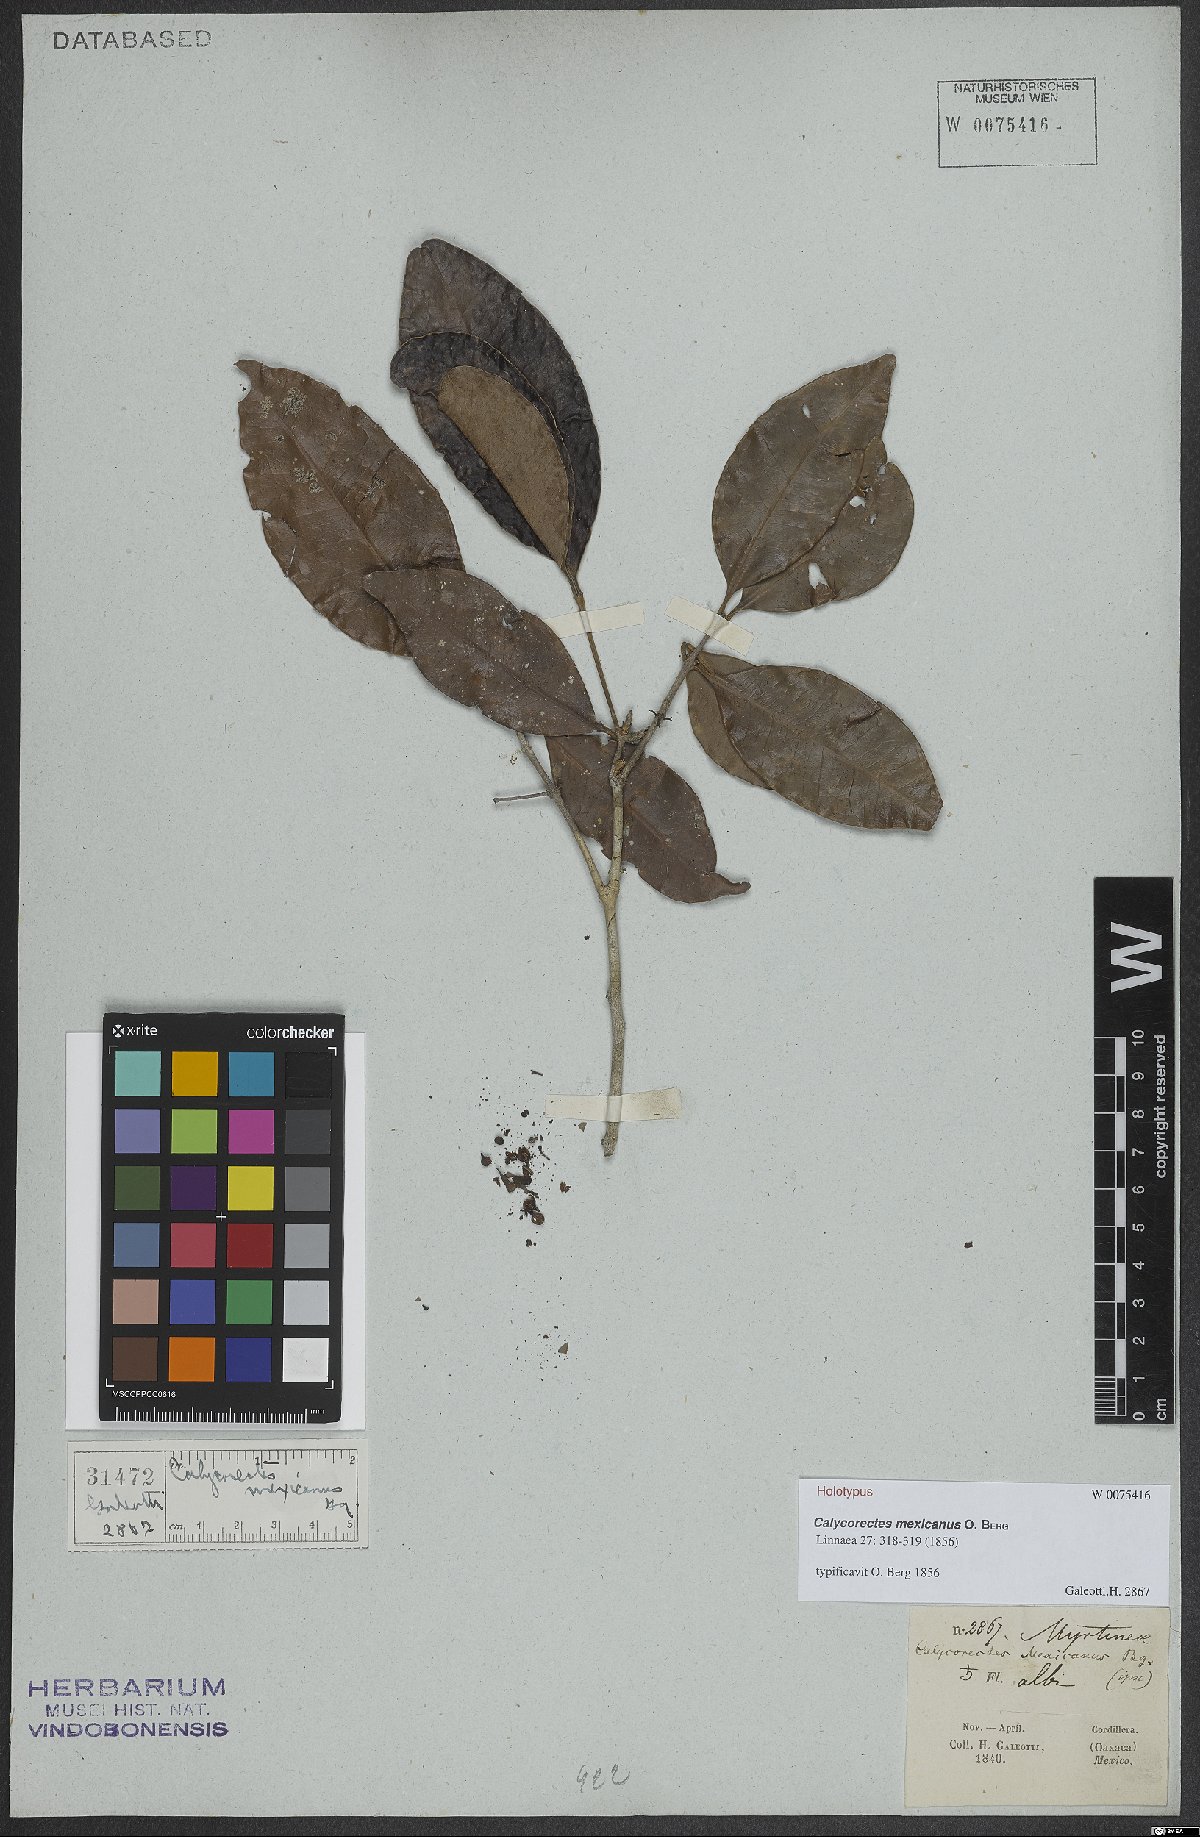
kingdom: Plantae
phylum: Tracheophyta
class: Magnoliopsida
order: Myrtales
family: Myrtaceae
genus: Calycorectes
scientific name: Calycorectes mexicanus
